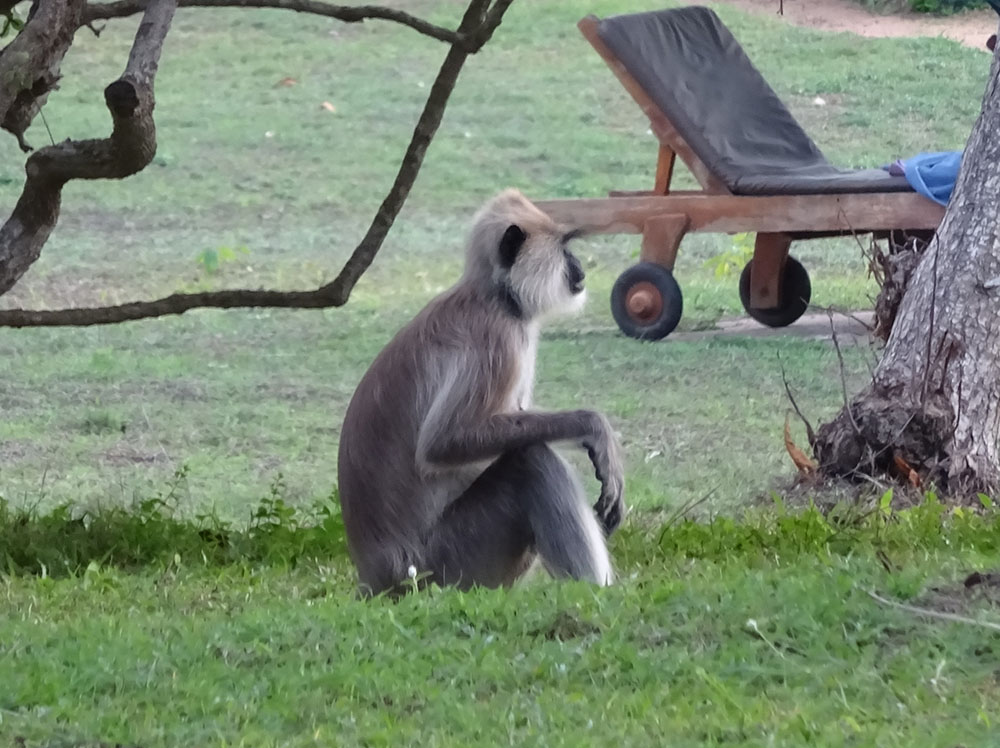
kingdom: Animalia
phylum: Chordata
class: Mammalia
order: Primates
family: Cercopithecidae
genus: Semnopithecus
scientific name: Semnopithecus priam
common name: Tufted gray langur
